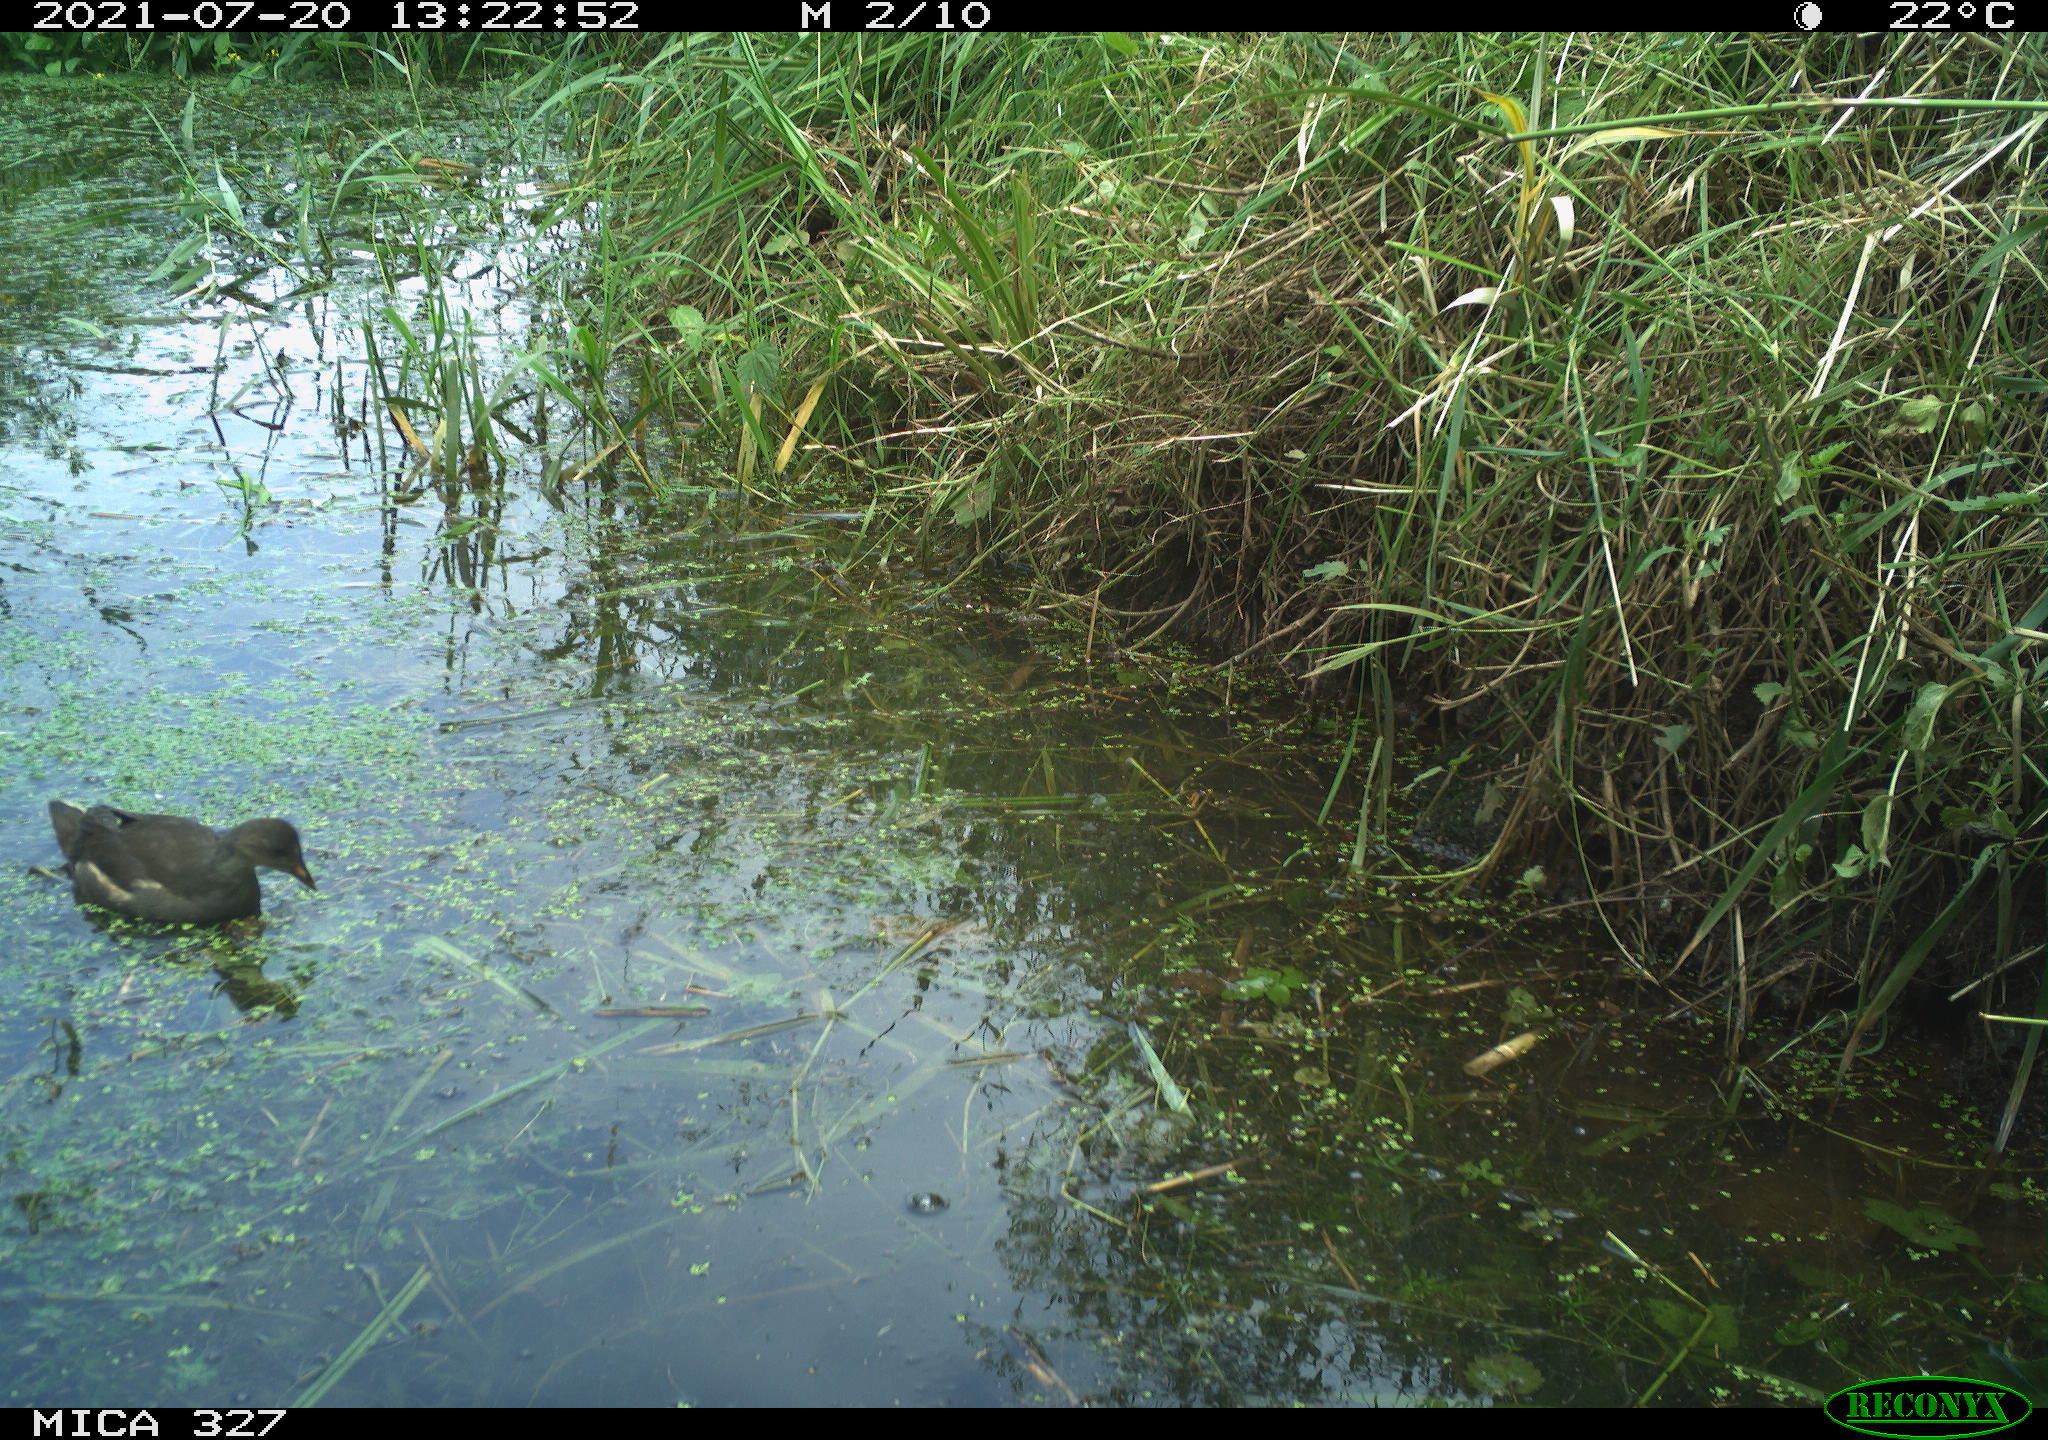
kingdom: Animalia
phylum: Chordata
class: Aves
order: Gruiformes
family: Rallidae
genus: Gallinula
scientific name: Gallinula chloropus
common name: Common moorhen
